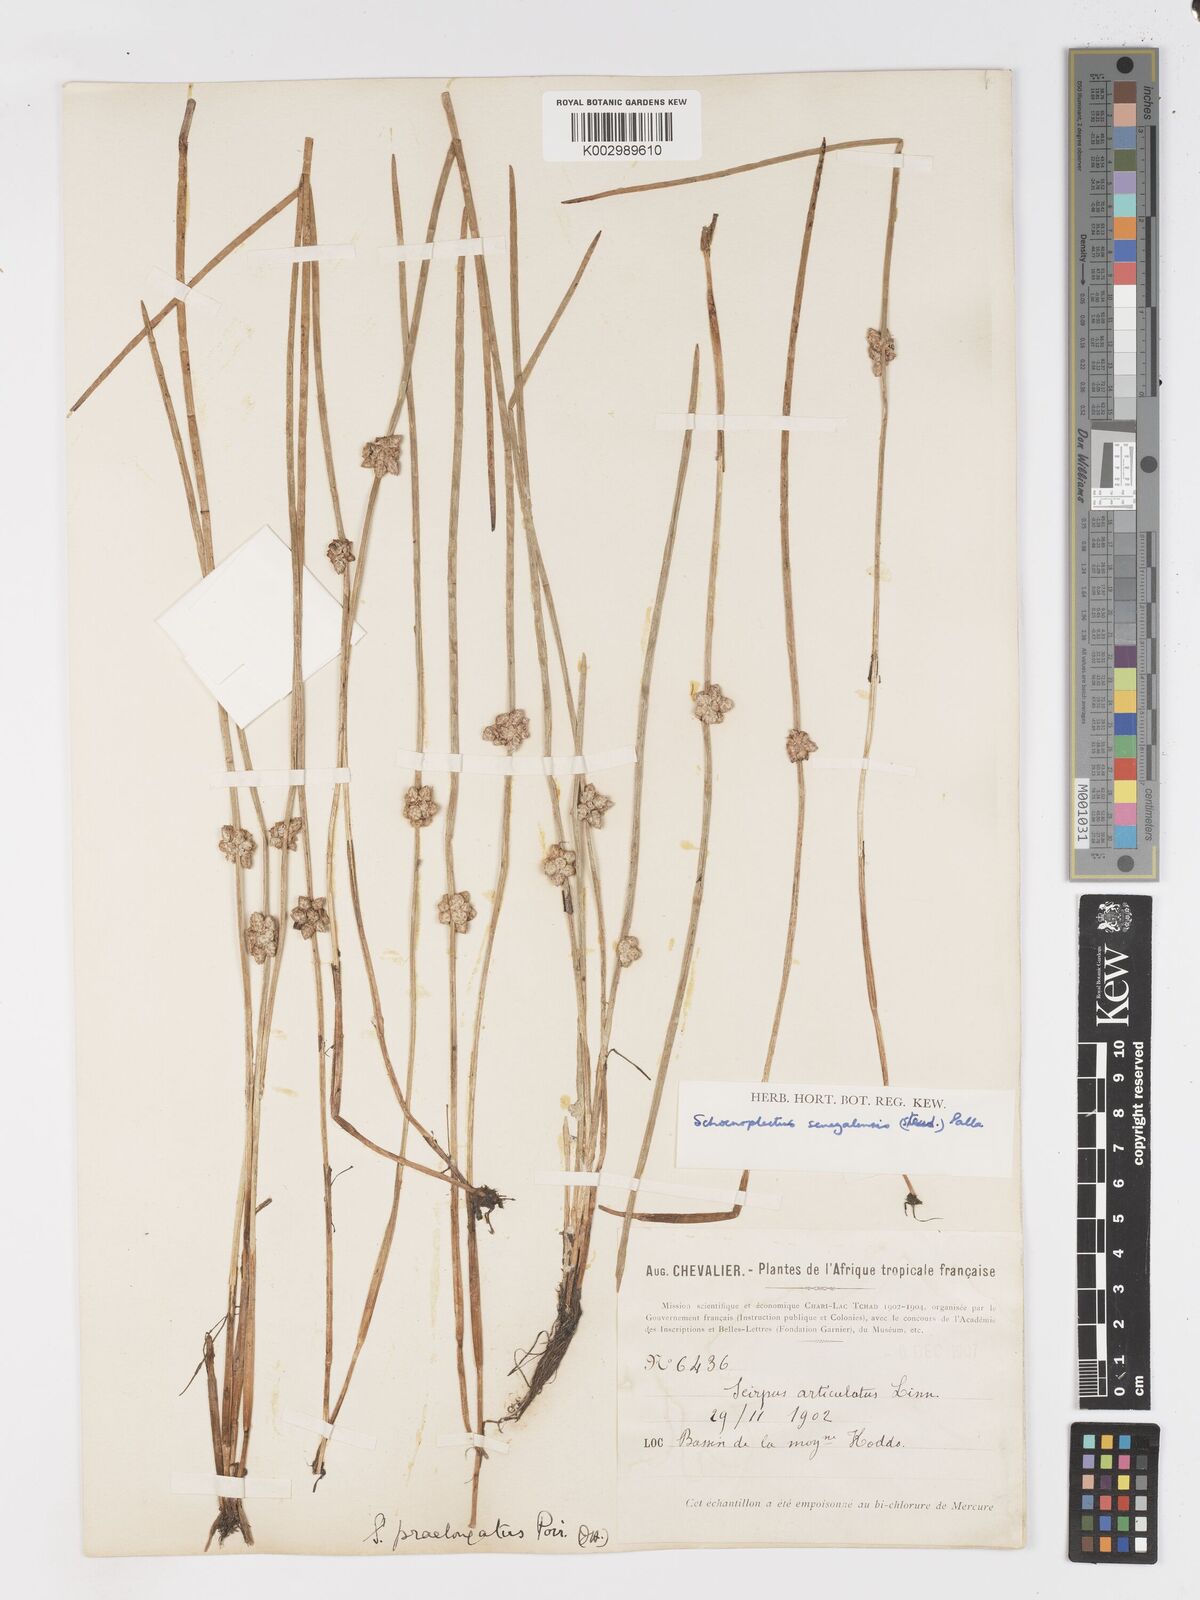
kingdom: Plantae
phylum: Tracheophyta
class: Liliopsida
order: Poales
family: Cyperaceae
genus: Schoenoplectiella
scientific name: Schoenoplectiella senegalensis
